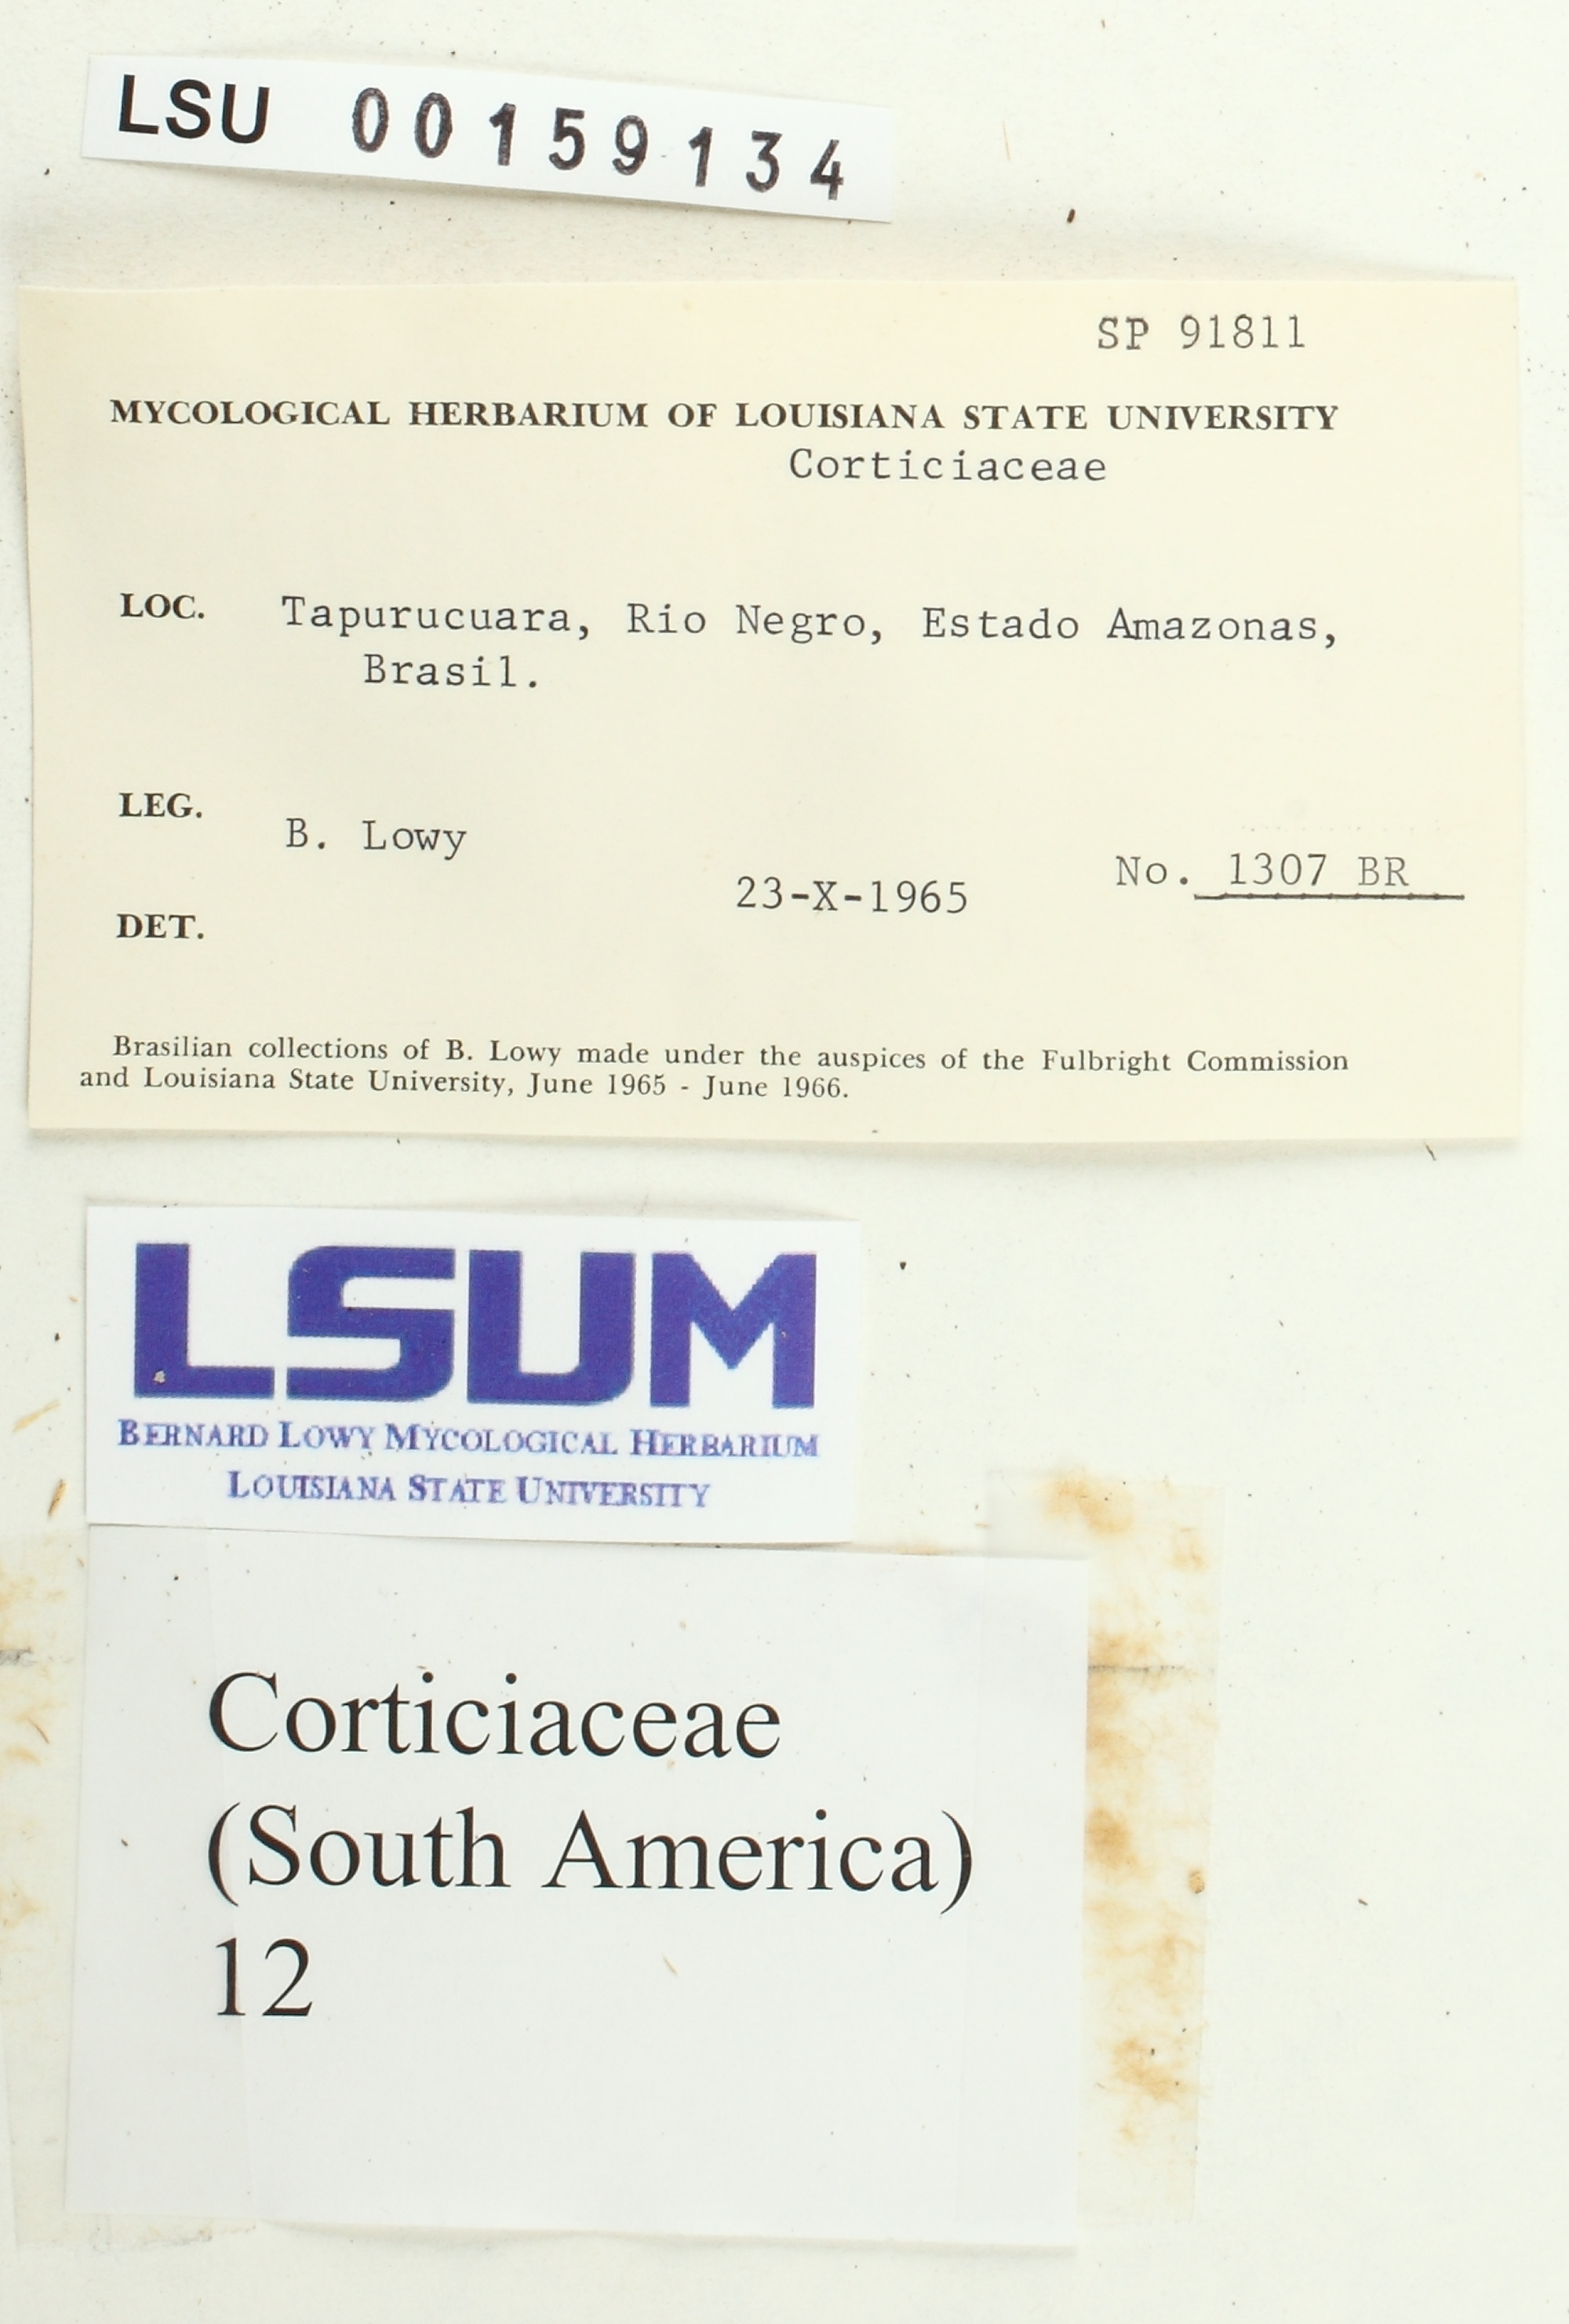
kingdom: Fungi
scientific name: Fungi
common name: Fungi
